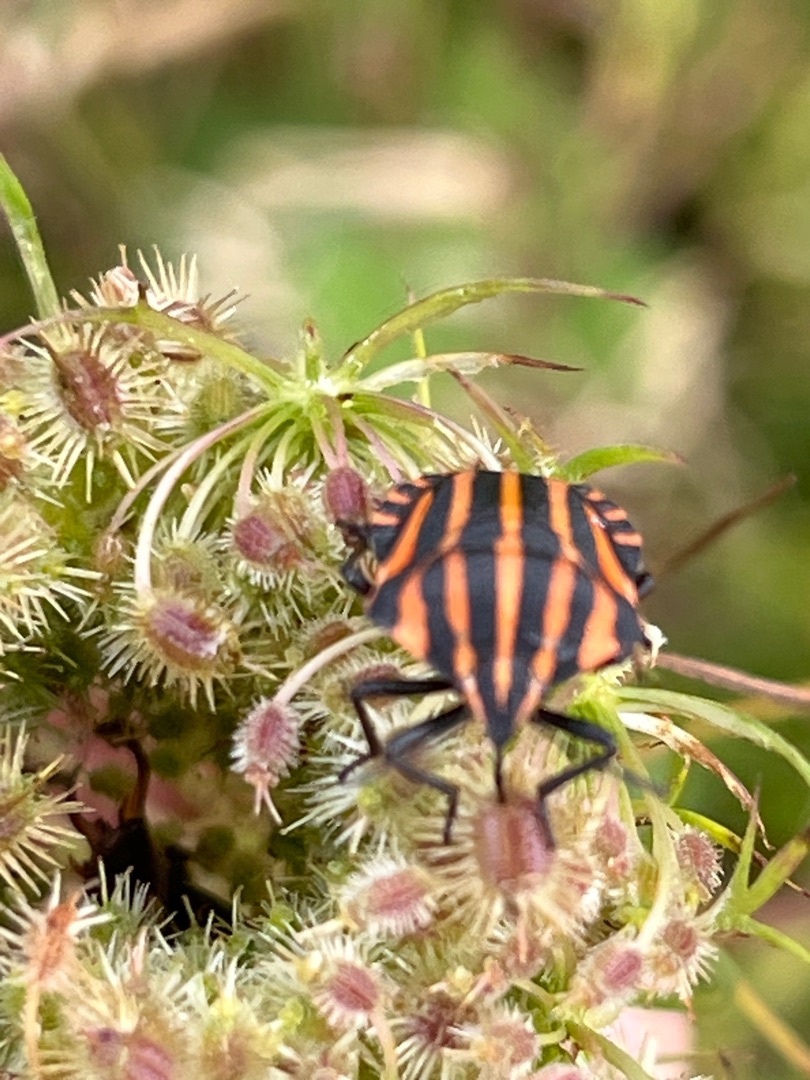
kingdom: Animalia
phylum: Arthropoda
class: Insecta
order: Hemiptera
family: Pentatomidae
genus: Graphosoma
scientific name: Graphosoma italicum
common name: Stribetæge
